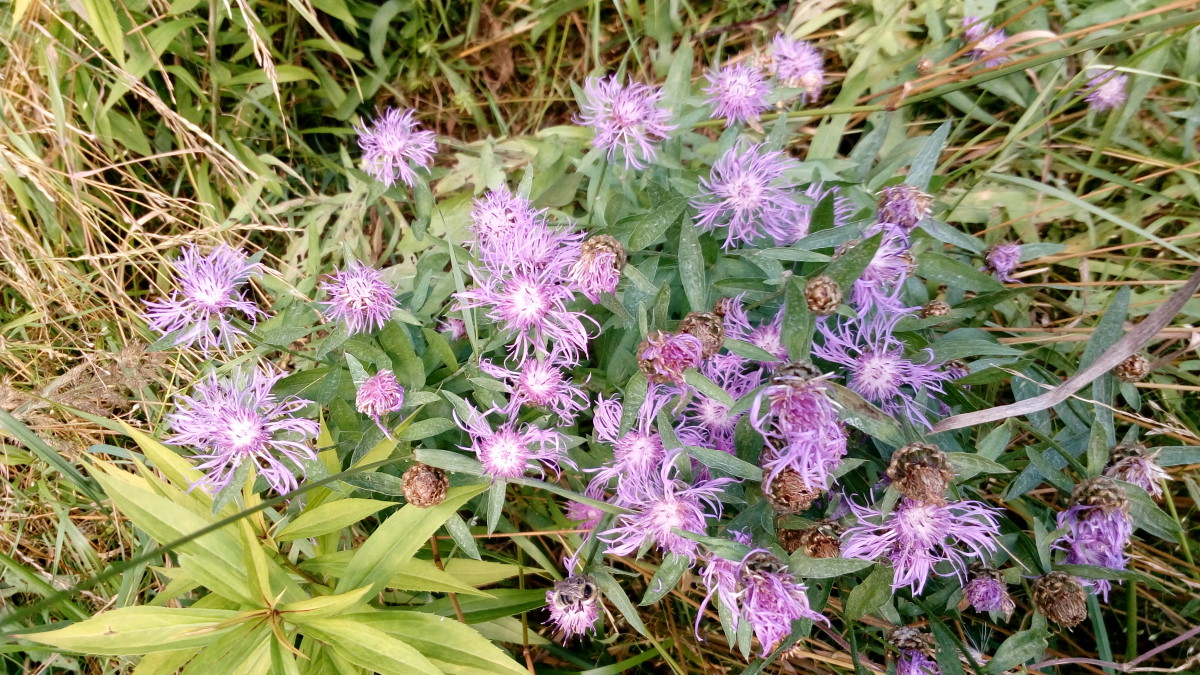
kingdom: Plantae
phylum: Tracheophyta
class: Magnoliopsida
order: Asterales
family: Asteraceae
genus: Centaurea
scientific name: Centaurea jacea
